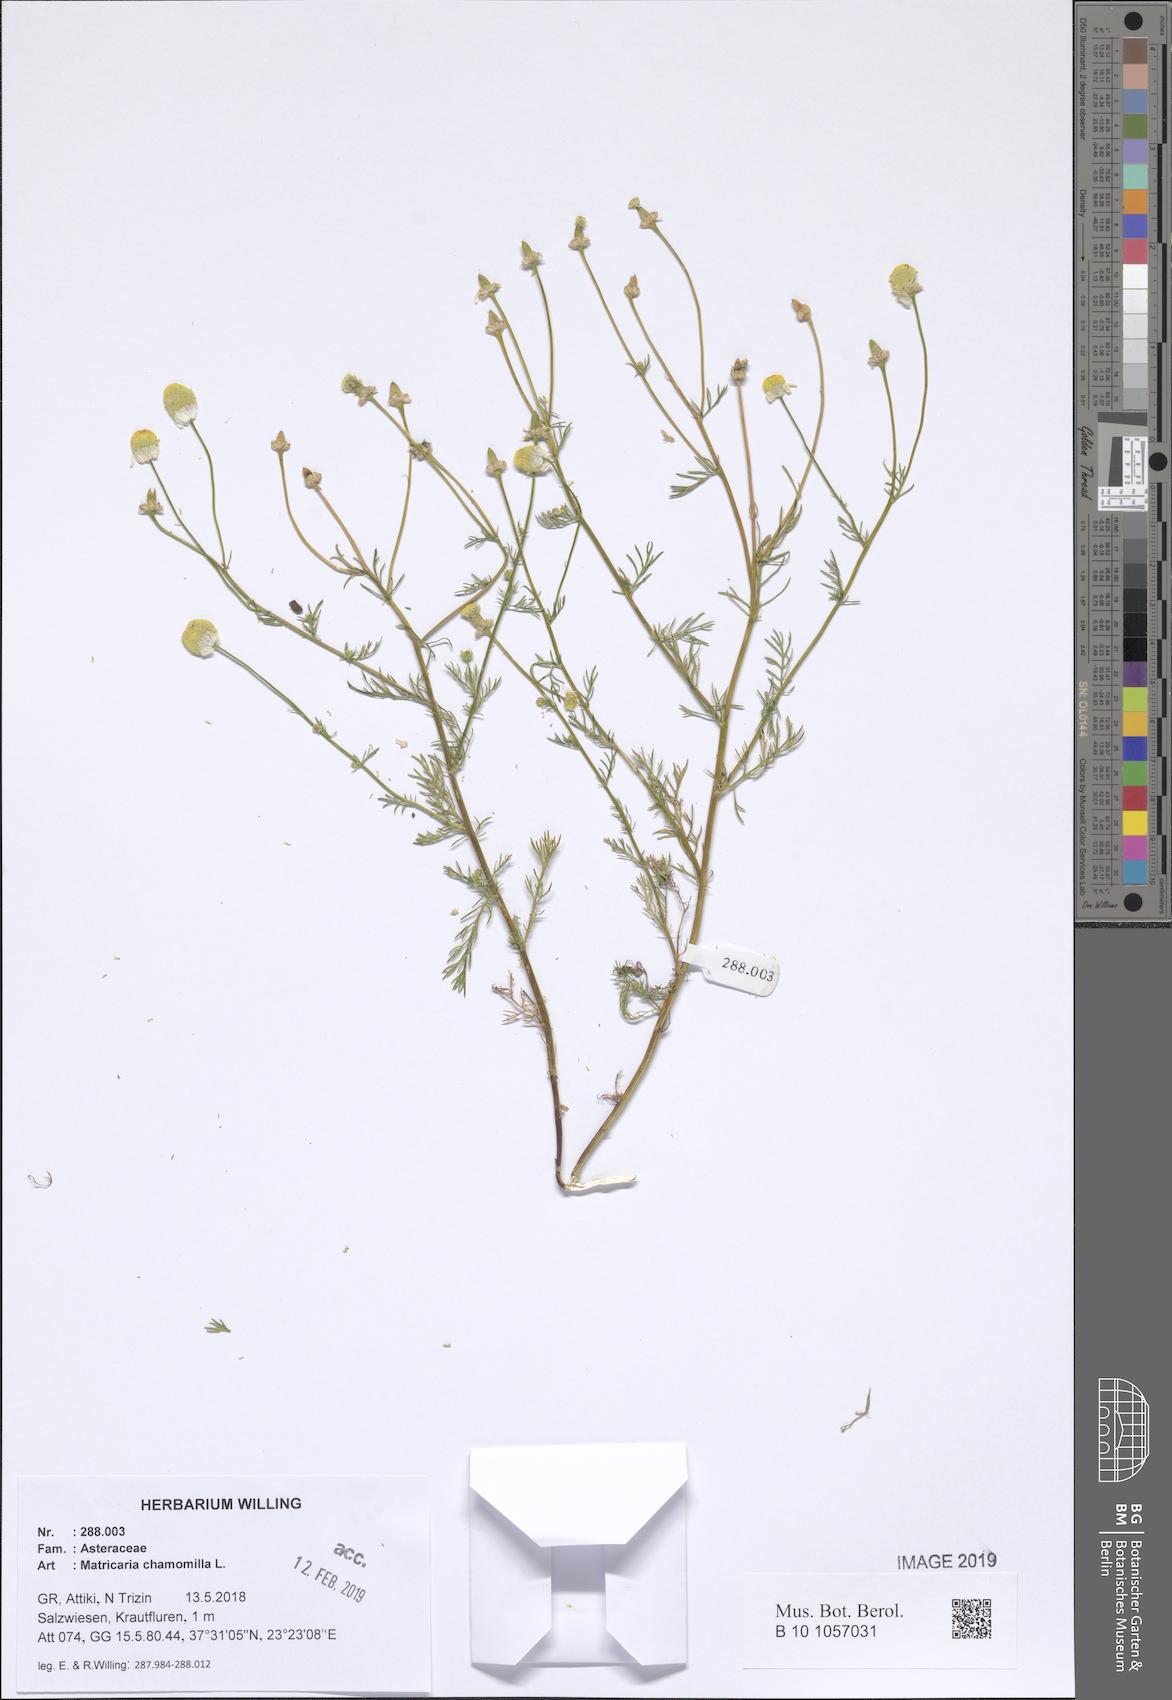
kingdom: Plantae
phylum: Tracheophyta
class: Magnoliopsida
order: Asterales
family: Asteraceae
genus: Matricaria
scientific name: Matricaria chamomilla
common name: Scented mayweed
